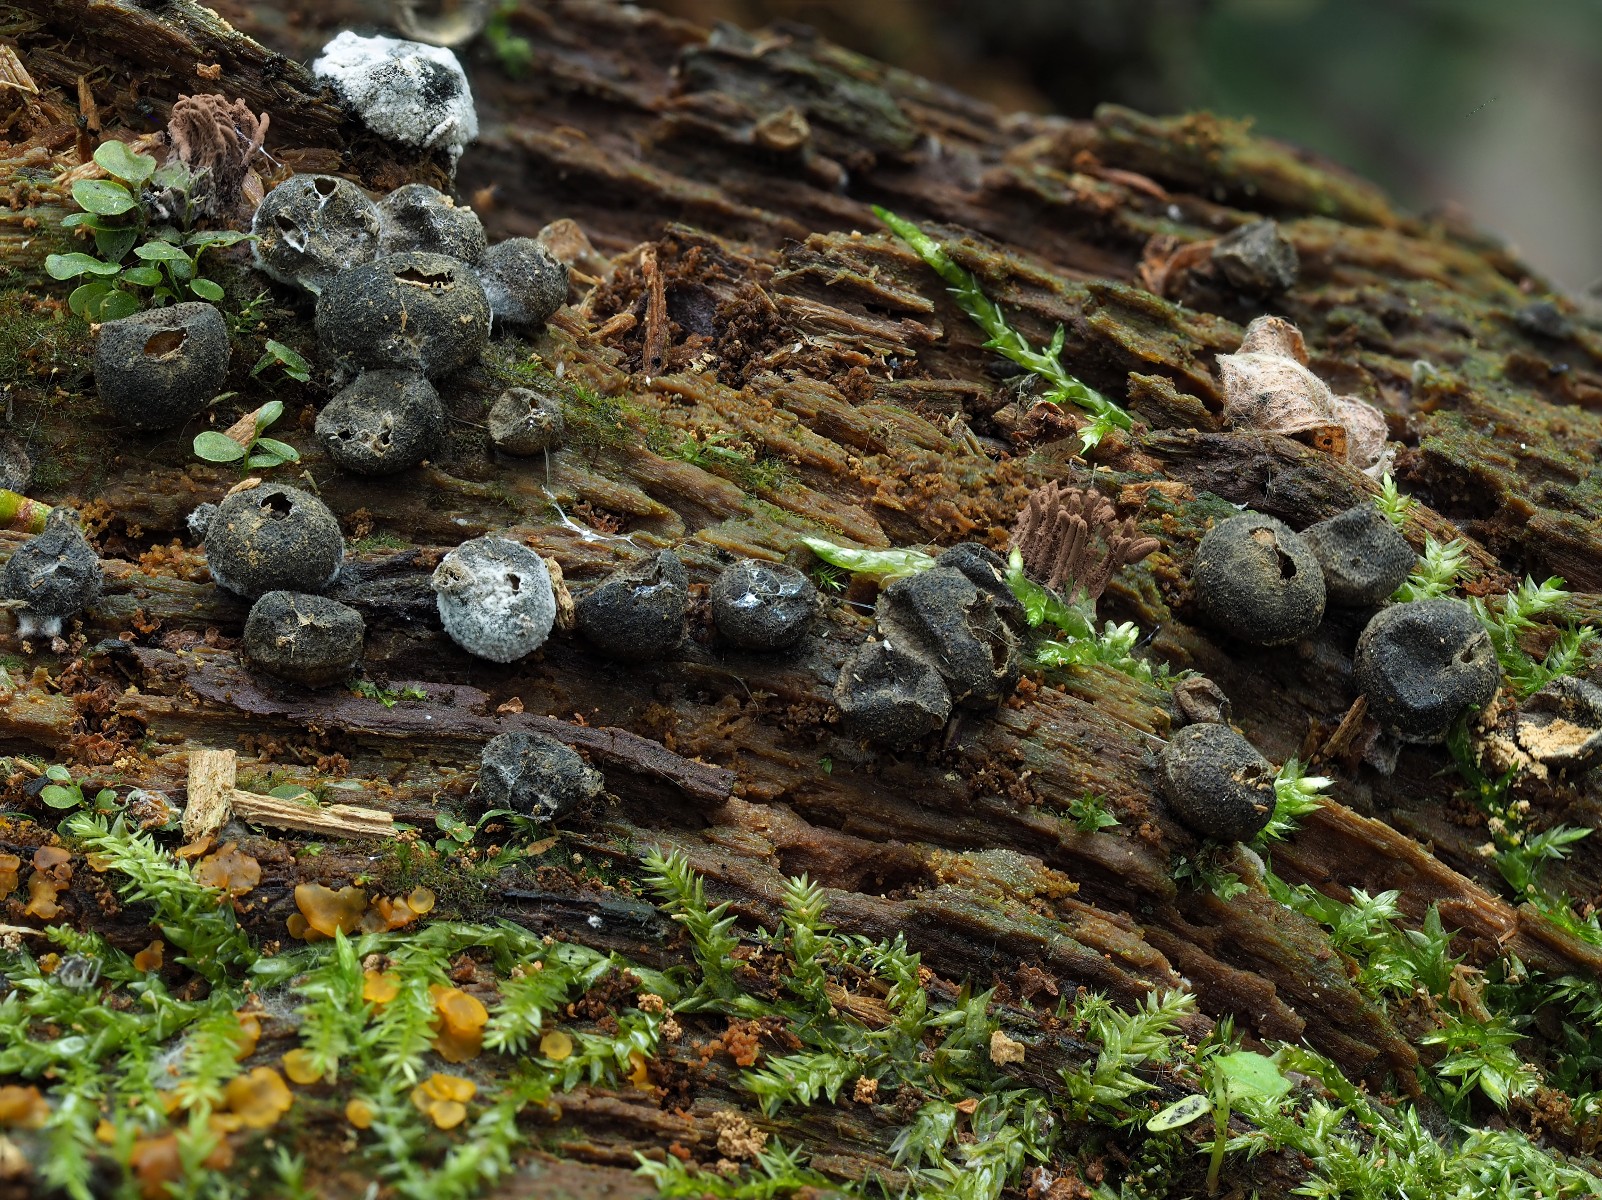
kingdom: Protozoa
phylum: Mycetozoa
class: Myxomycetes
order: Cribrariales
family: Tubiferaceae
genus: Lycogala
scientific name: Lycogala epidendrum
